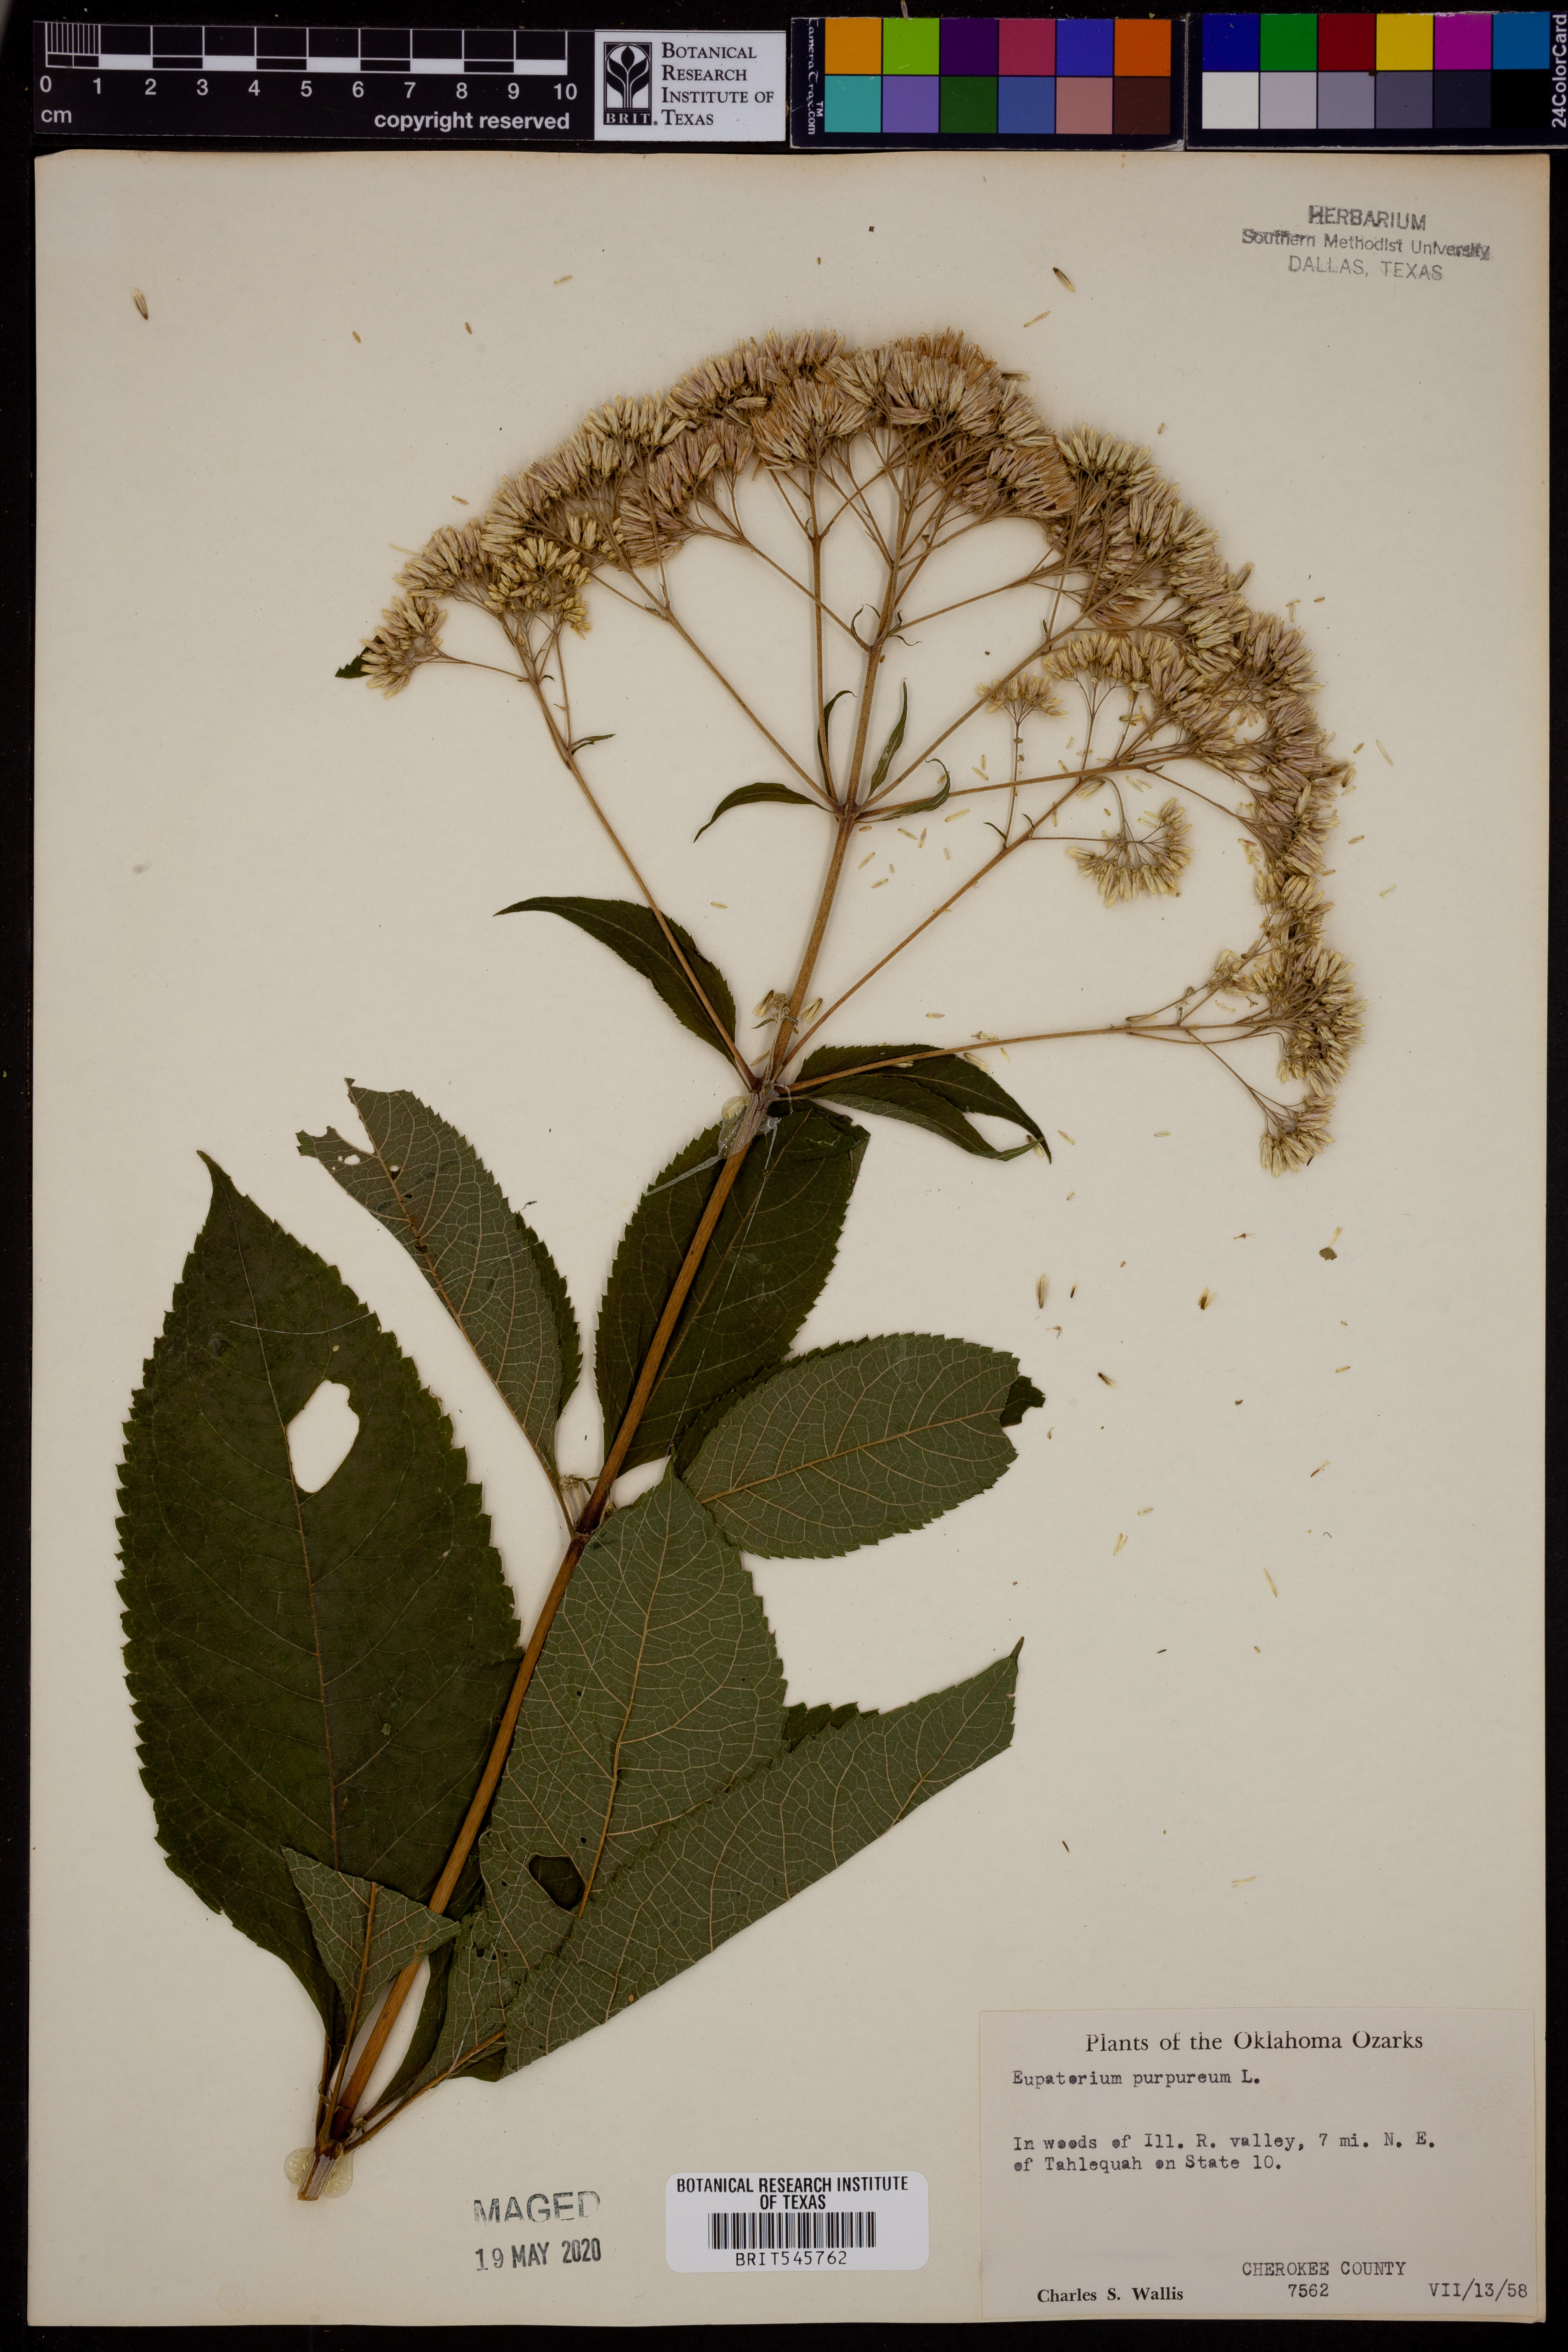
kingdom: Plantae
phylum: Tracheophyta
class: Magnoliopsida
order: Asterales
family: Asteraceae
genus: Eupatorium
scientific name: Eupatorium quaternum
